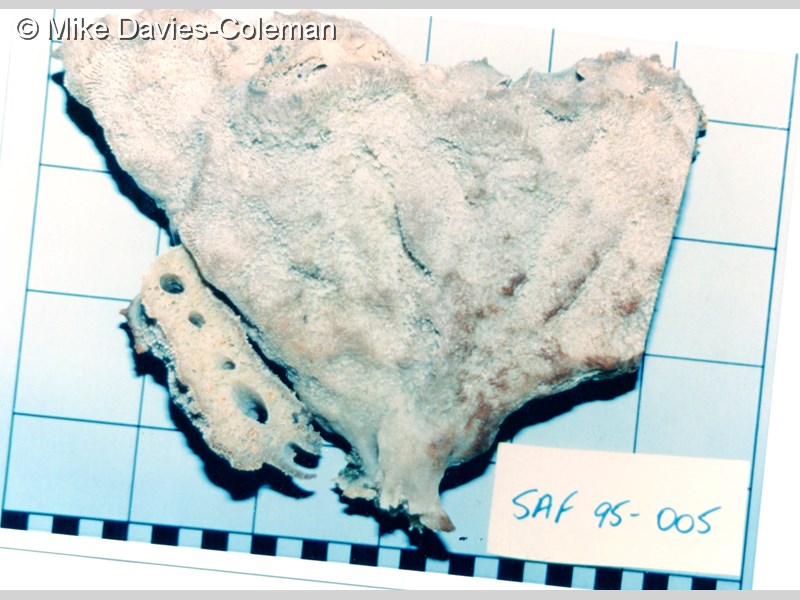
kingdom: Animalia
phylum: Porifera
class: Demospongiae
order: Poecilosclerida
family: Isodictyidae
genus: Isodictya
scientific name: Isodictya compressa
